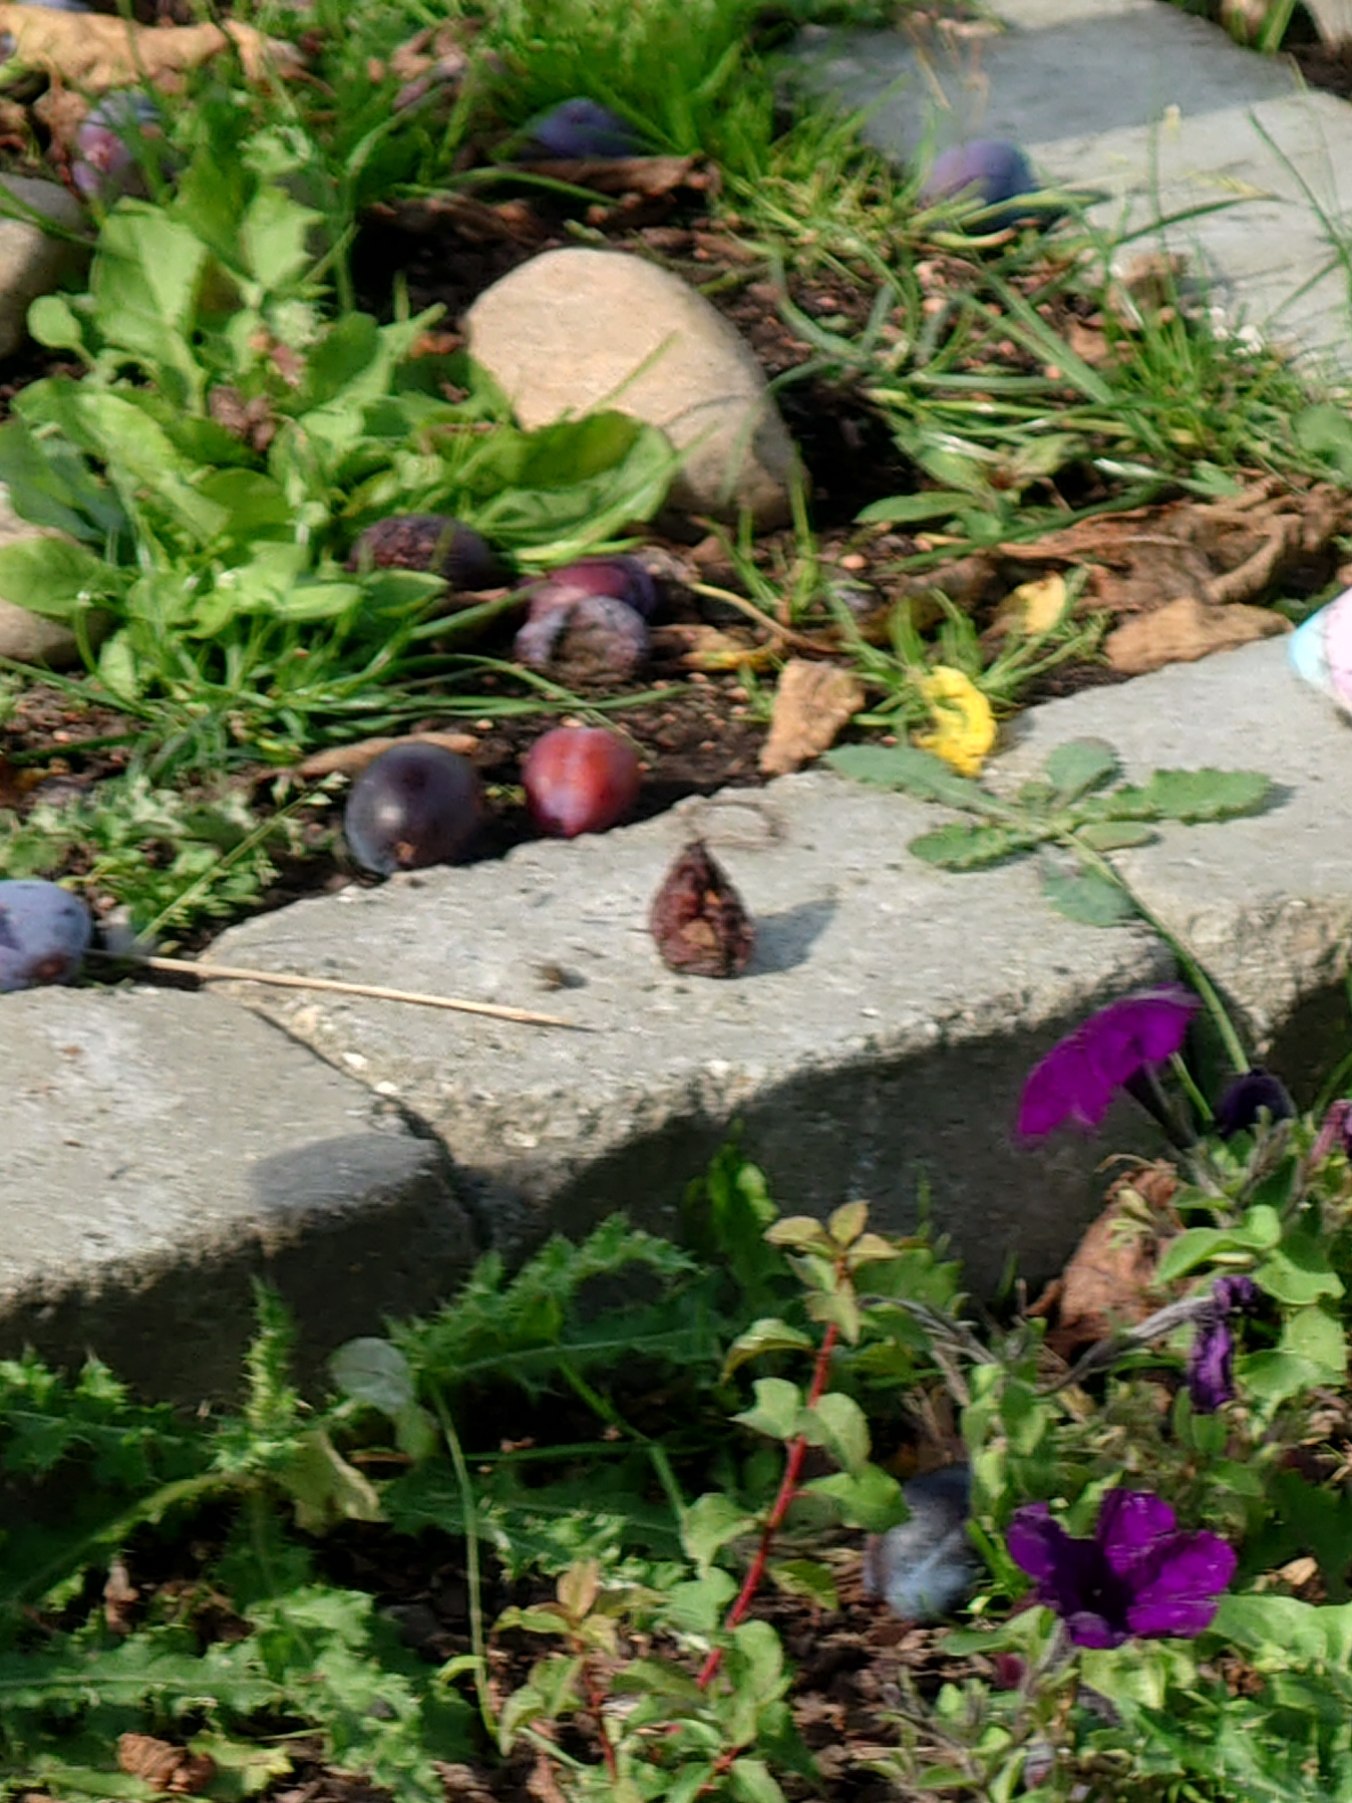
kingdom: Animalia
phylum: Arthropoda
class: Insecta
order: Lepidoptera
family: Nymphalidae
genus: Vanessa
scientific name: Vanessa atalanta
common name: Admiral
